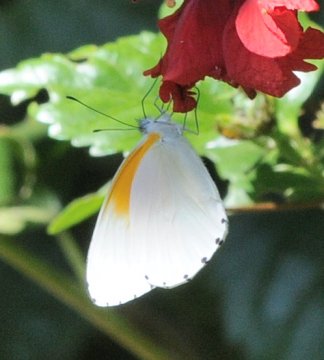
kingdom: Animalia
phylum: Arthropoda
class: Insecta
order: Lepidoptera
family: Pieridae
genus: Mylothris
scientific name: Mylothris rueppellii
